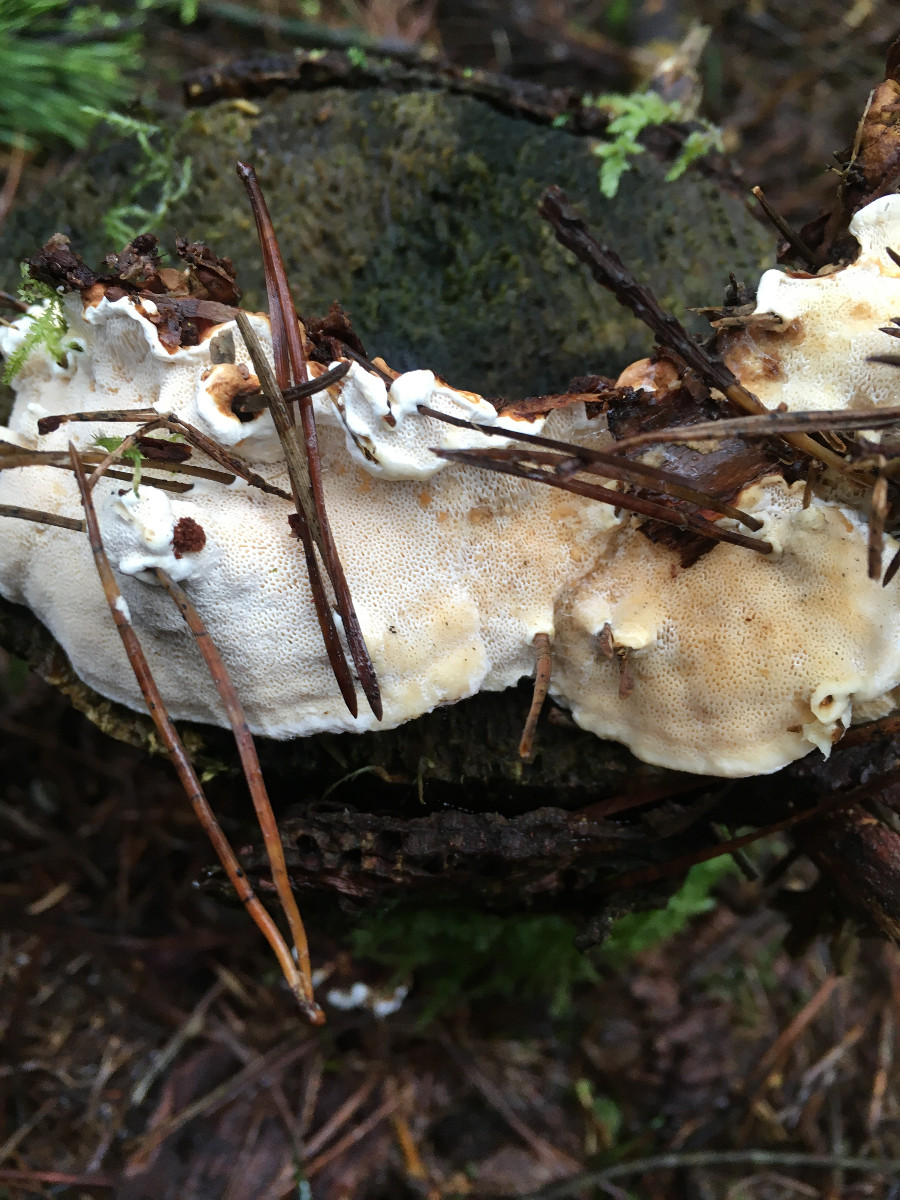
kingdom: Fungi
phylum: Basidiomycota
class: Agaricomycetes
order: Russulales
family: Bondarzewiaceae
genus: Heterobasidion
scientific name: Heterobasidion annosum
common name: almindelig rodfordærver
